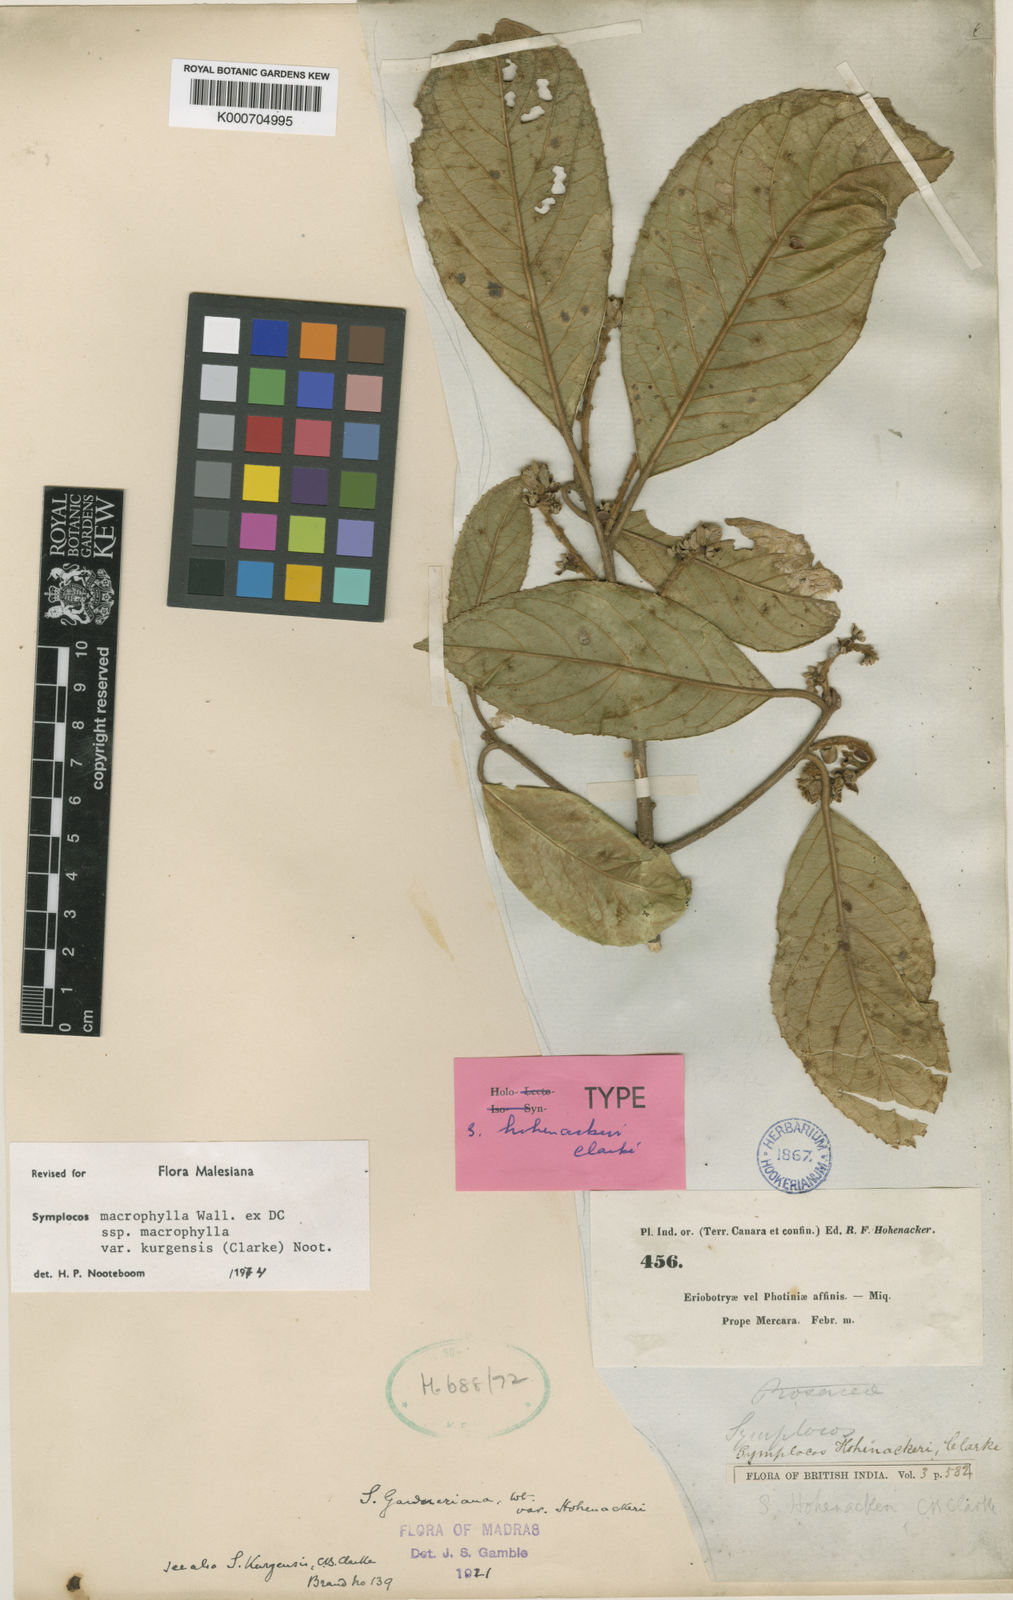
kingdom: Plantae
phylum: Tracheophyta
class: Magnoliopsida
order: Ericales
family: Symplocaceae
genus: Symplocos
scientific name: Symplocos
